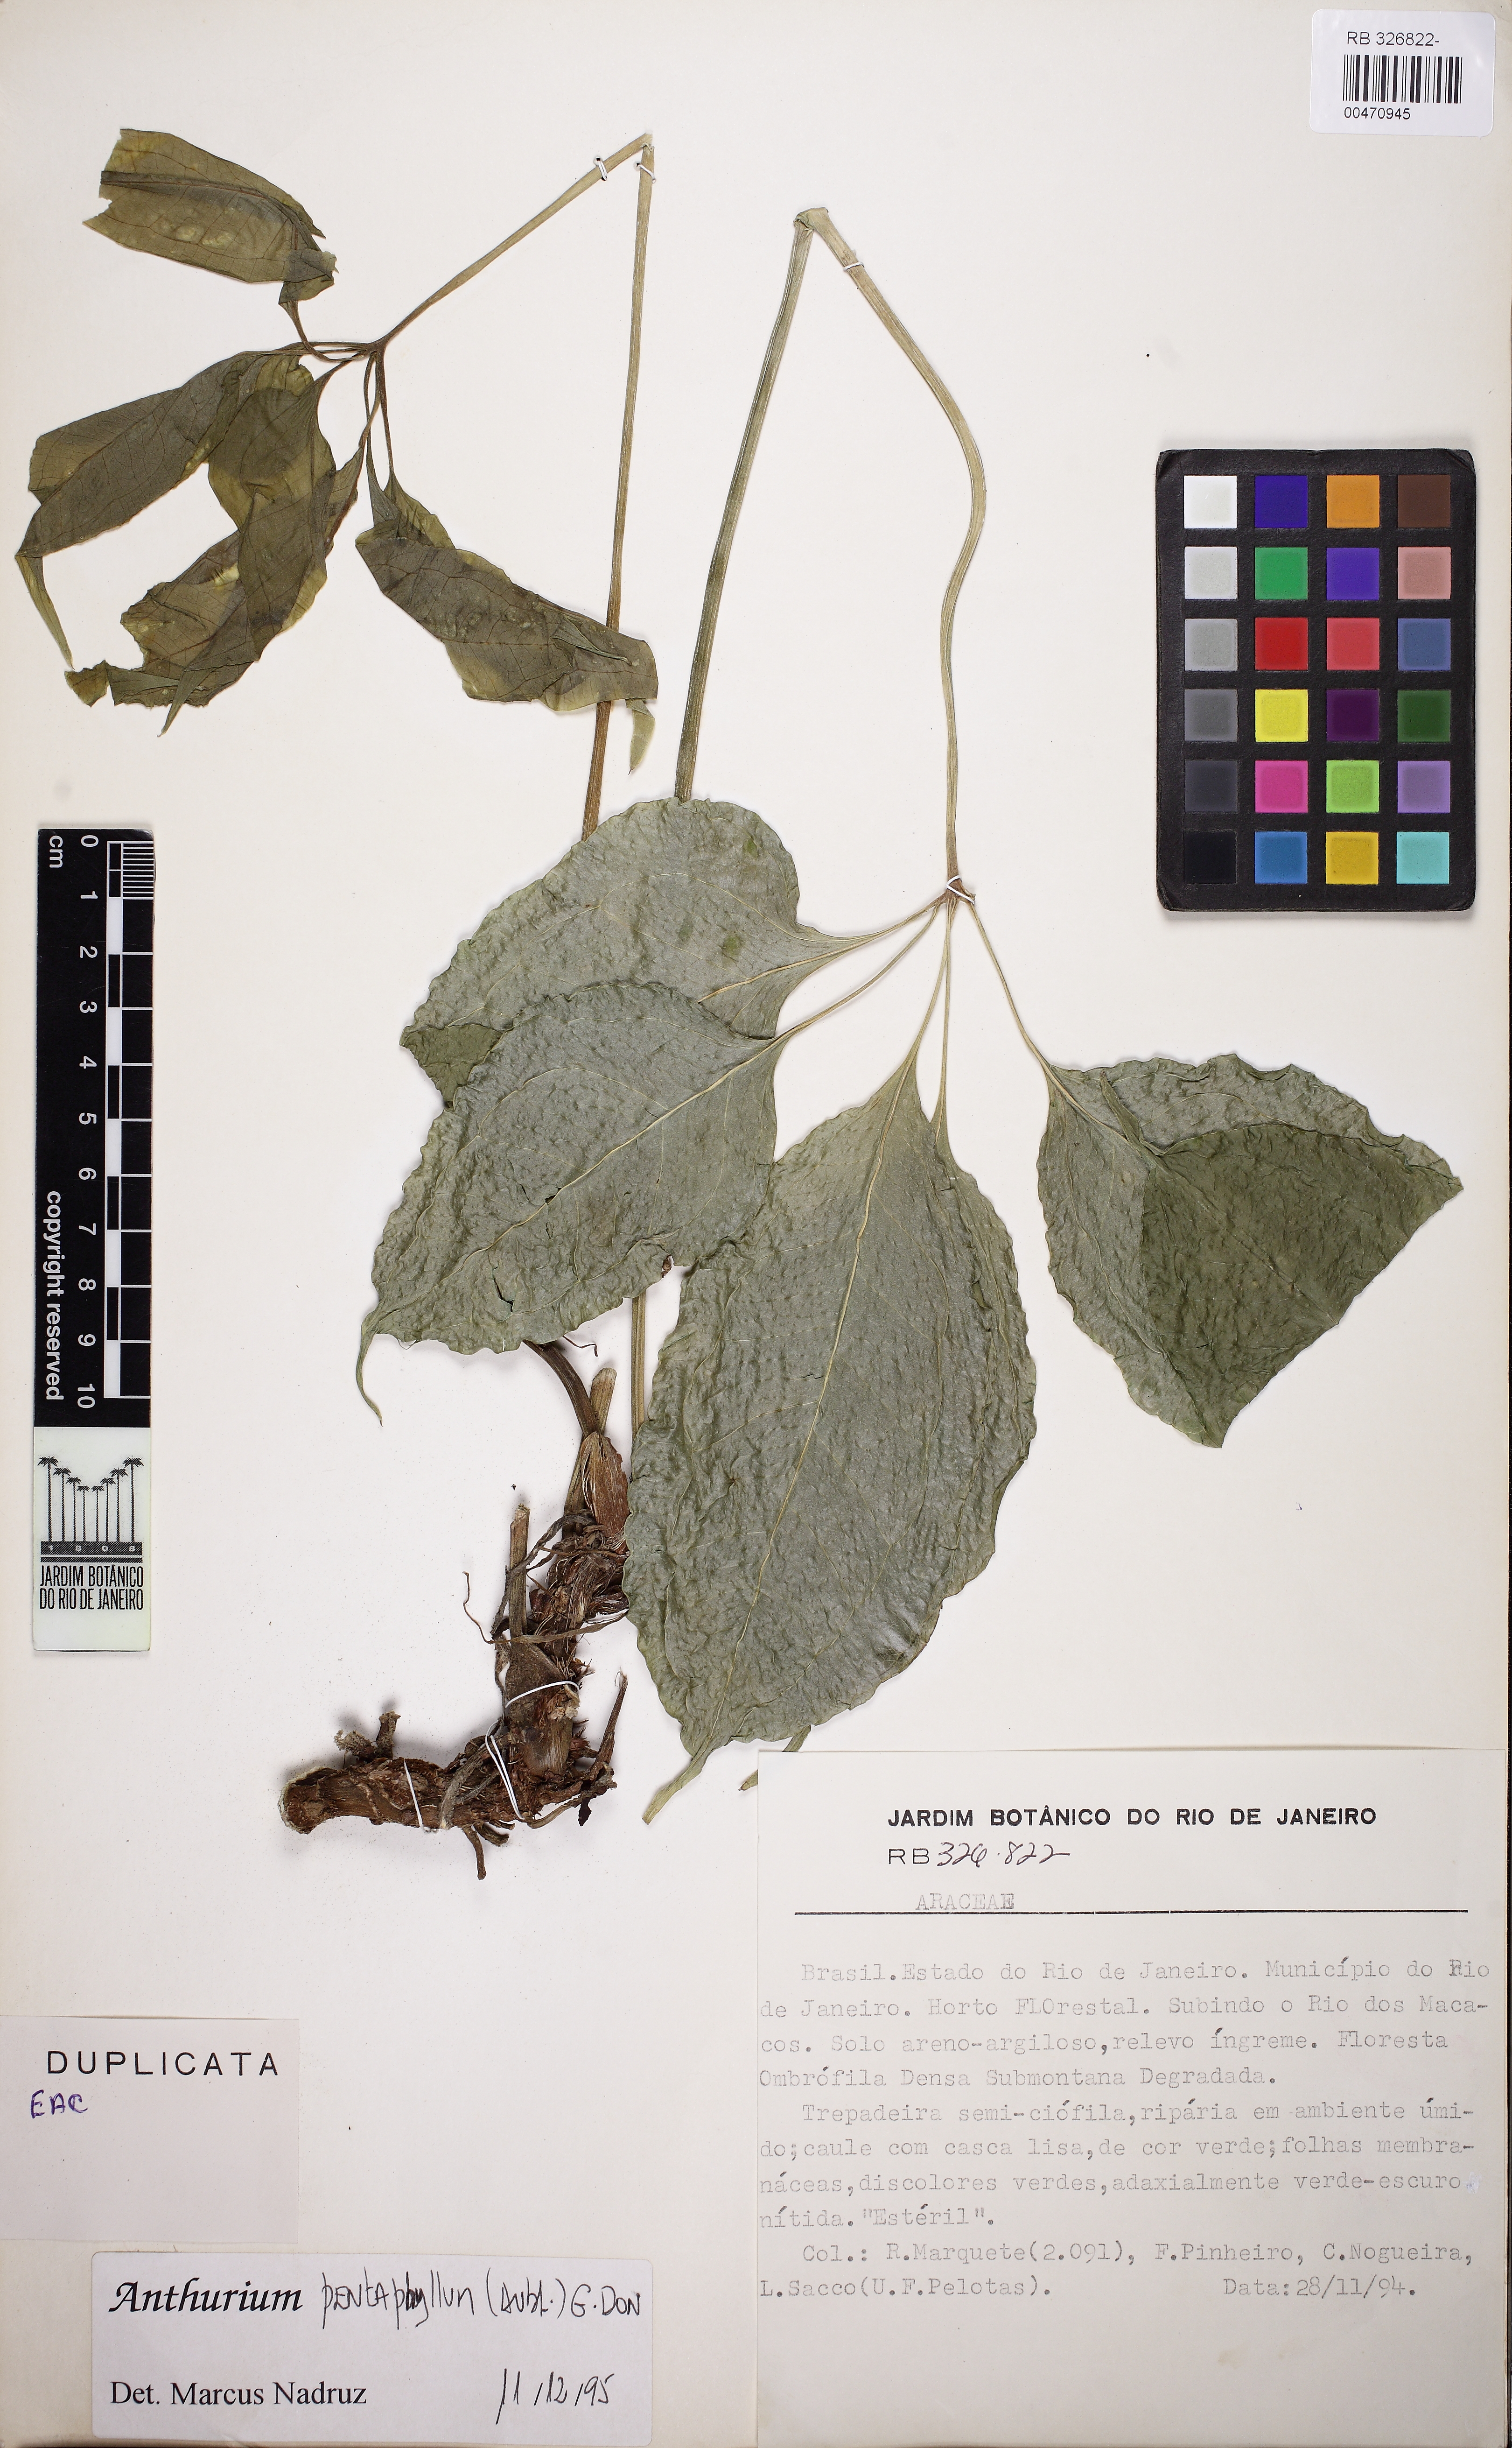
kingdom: Plantae
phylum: Tracheophyta
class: Liliopsida
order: Alismatales
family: Araceae
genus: Anthurium
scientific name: Anthurium pentaphyllum
